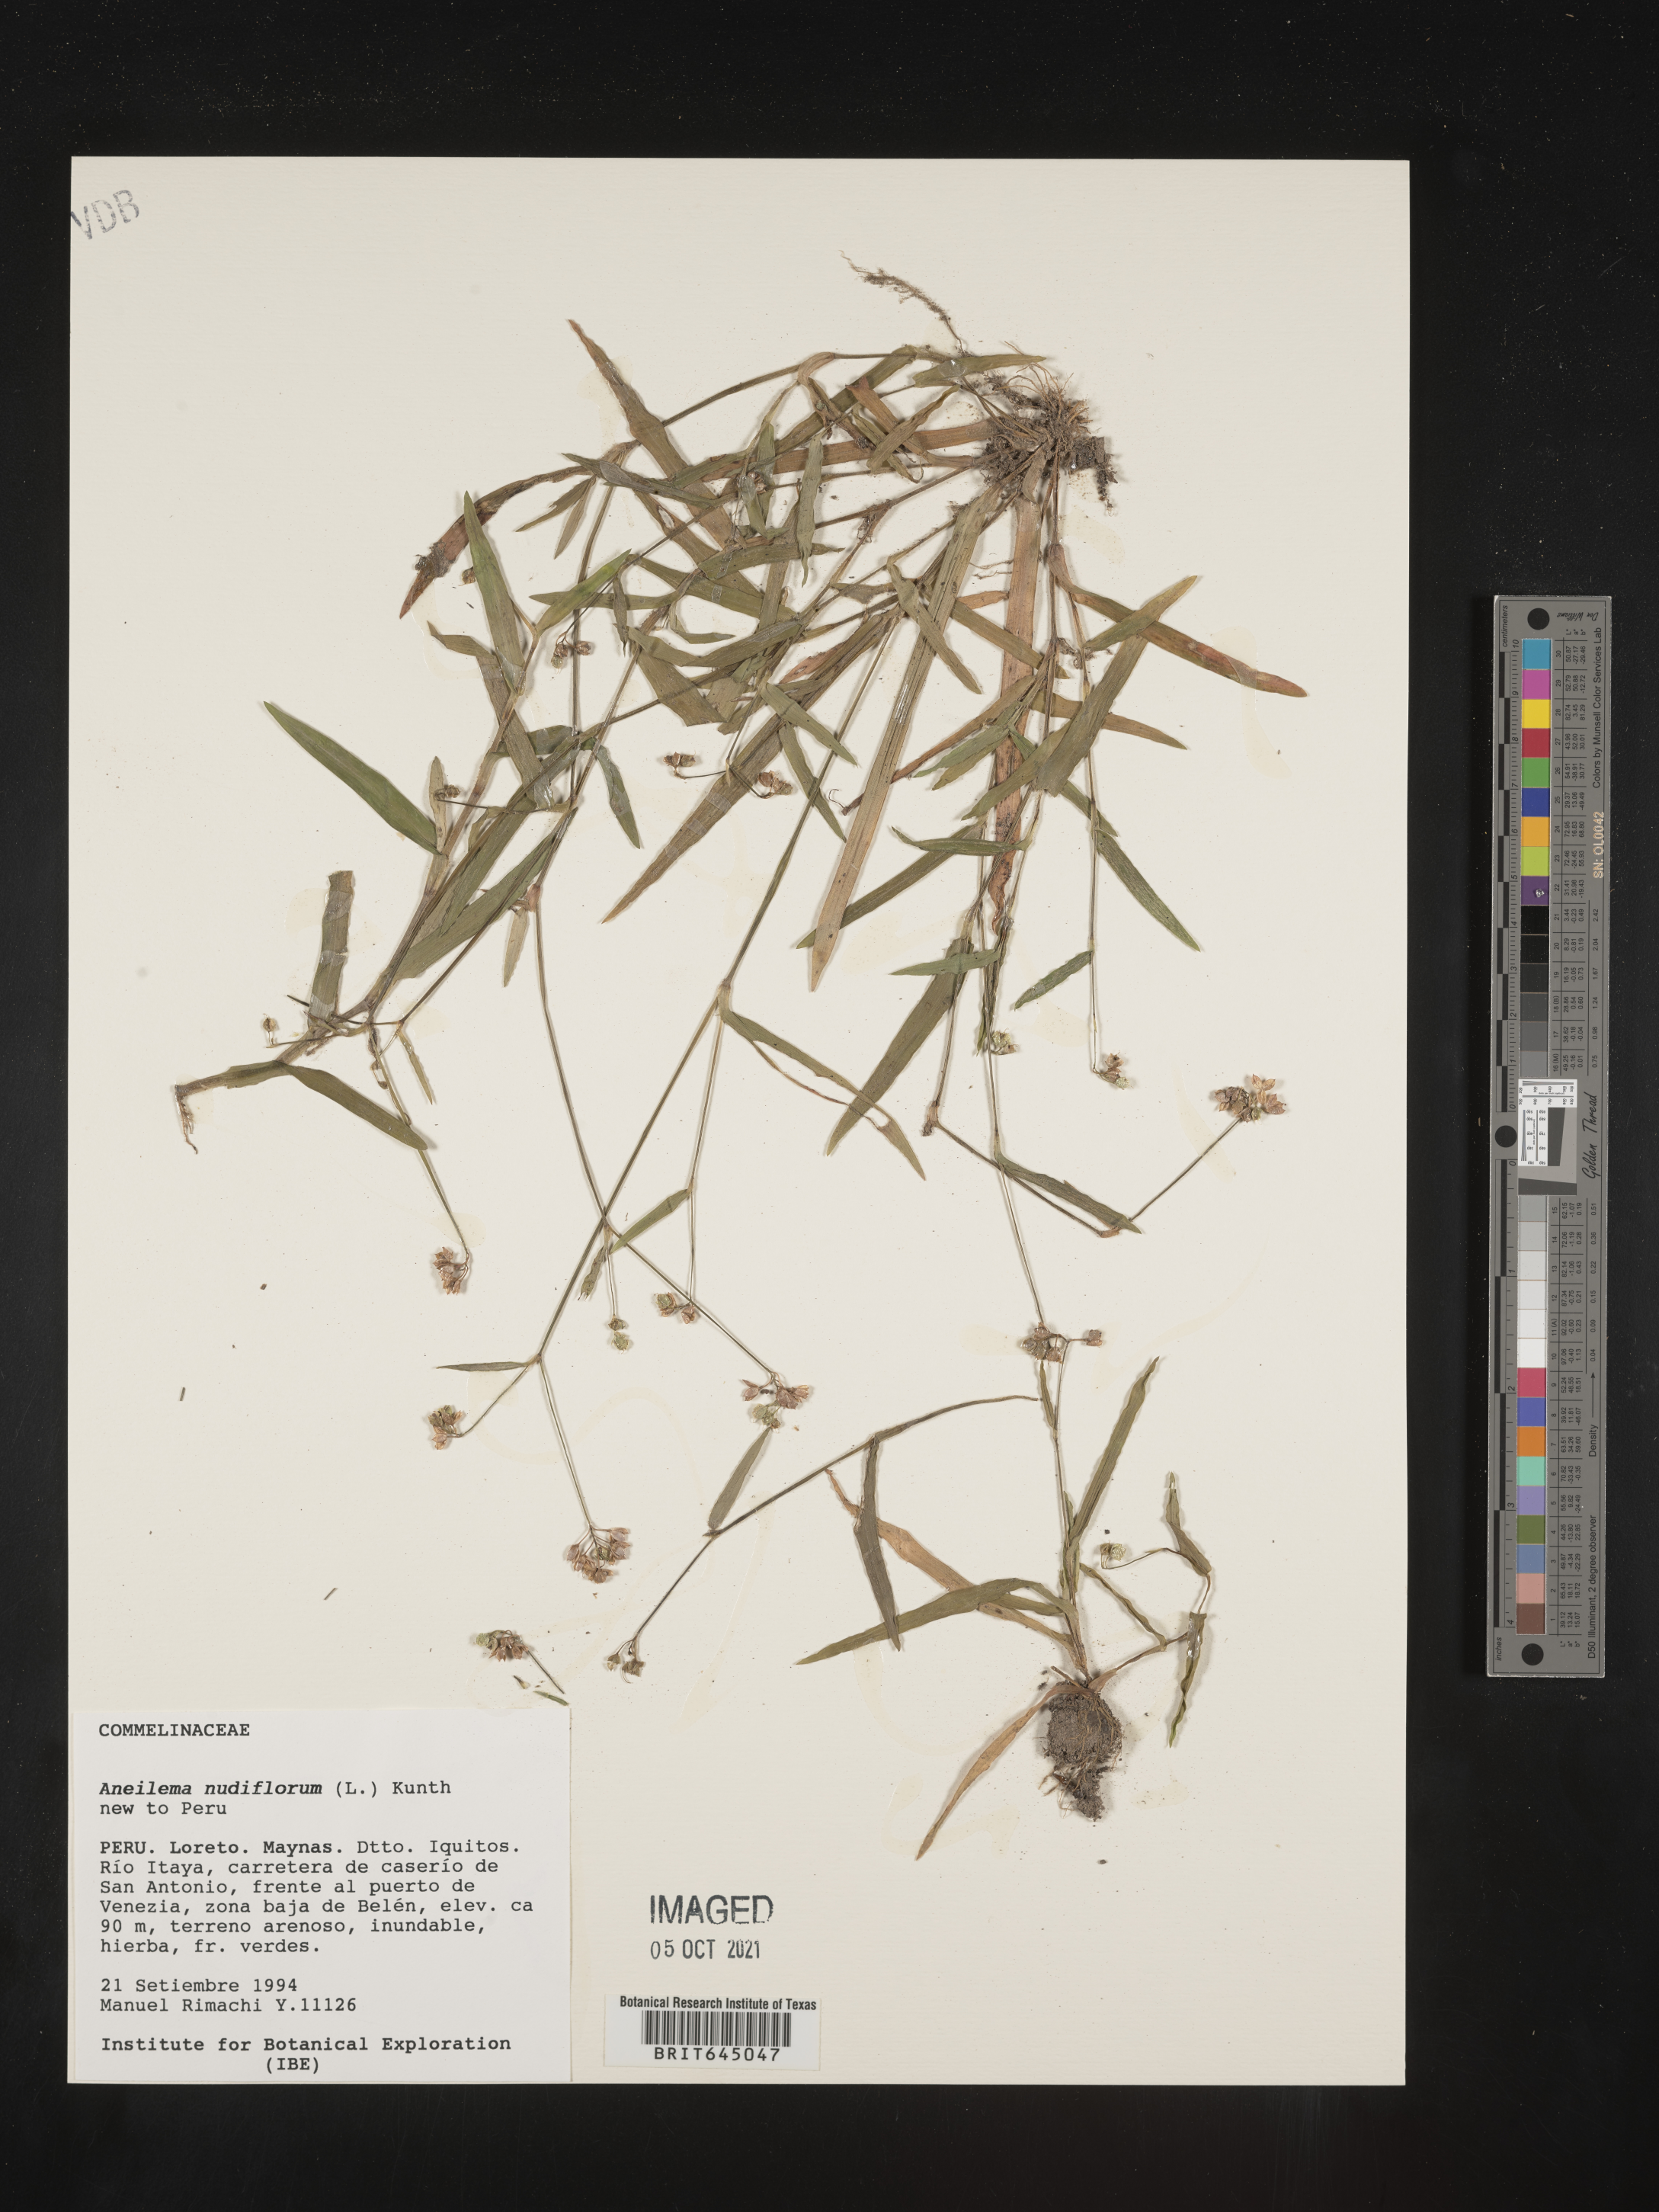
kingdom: Plantae
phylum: Tracheophyta
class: Liliopsida
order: Commelinales
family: Commelinaceae
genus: Murdannia
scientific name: Murdannia nudiflora
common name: Nakedstem dewflower
